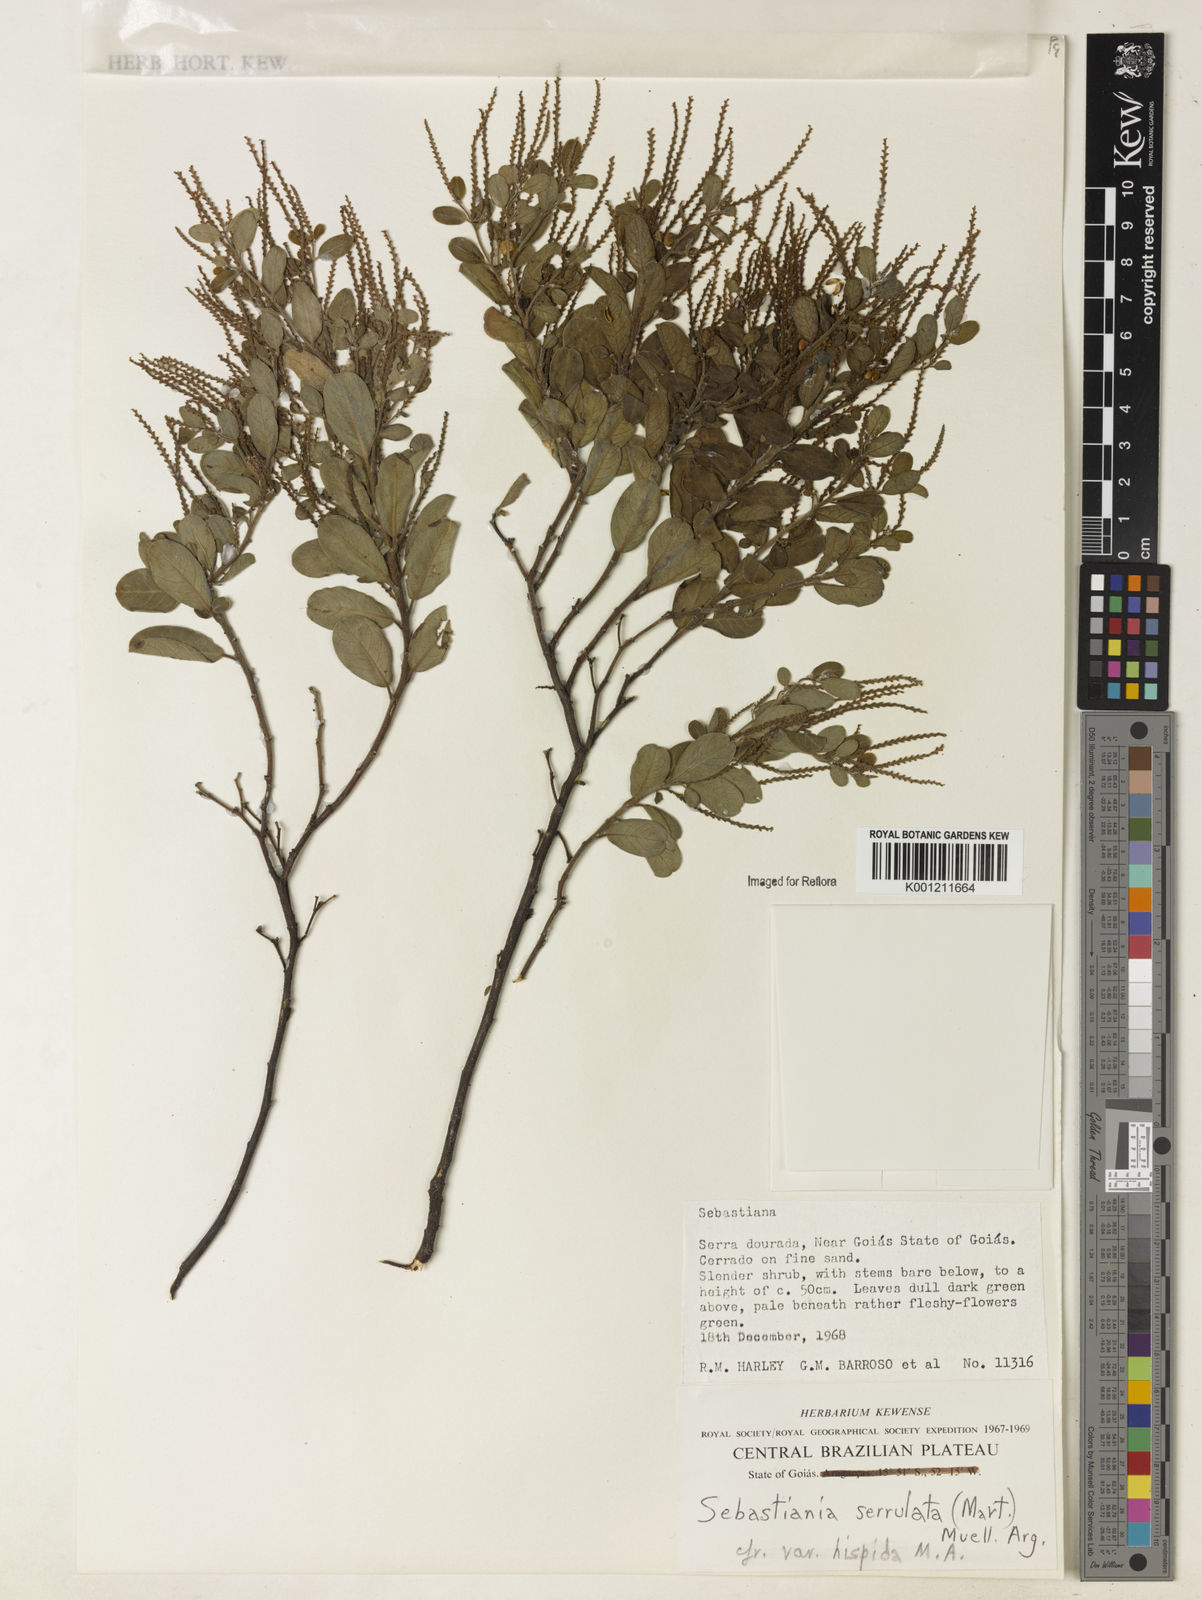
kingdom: Plantae
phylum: Tracheophyta
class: Magnoliopsida
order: Malpighiales
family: Euphorbiaceae
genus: Microstachys
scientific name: Microstachys
